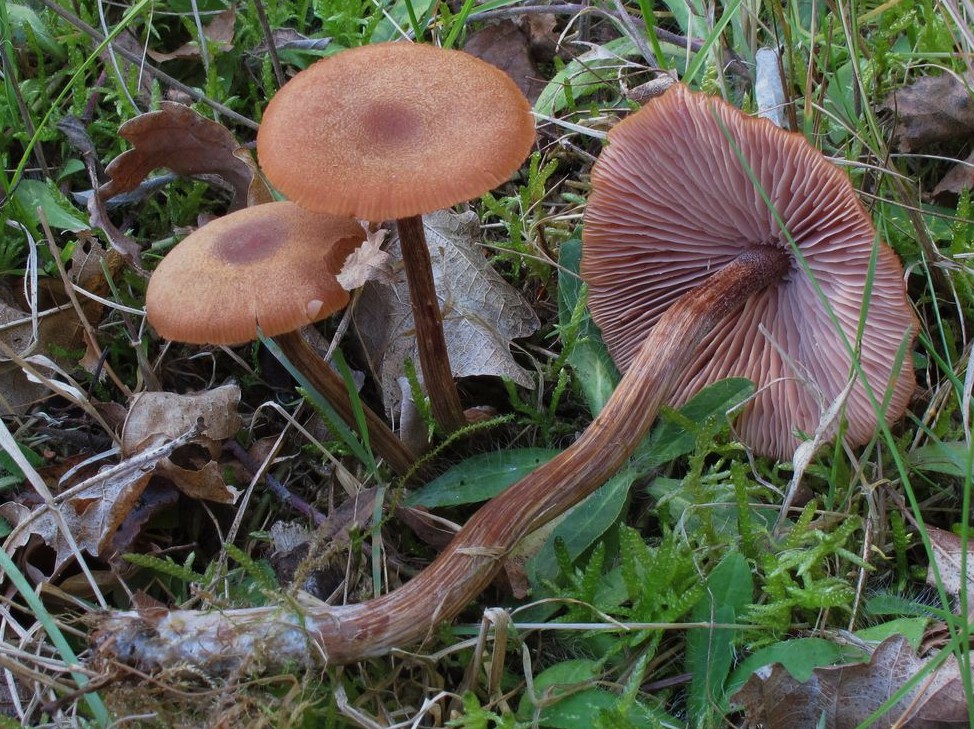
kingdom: Fungi
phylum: Basidiomycota
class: Agaricomycetes
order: Agaricales
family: Hydnangiaceae
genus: Laccaria
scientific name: Laccaria proxima
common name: stor ametysthat
